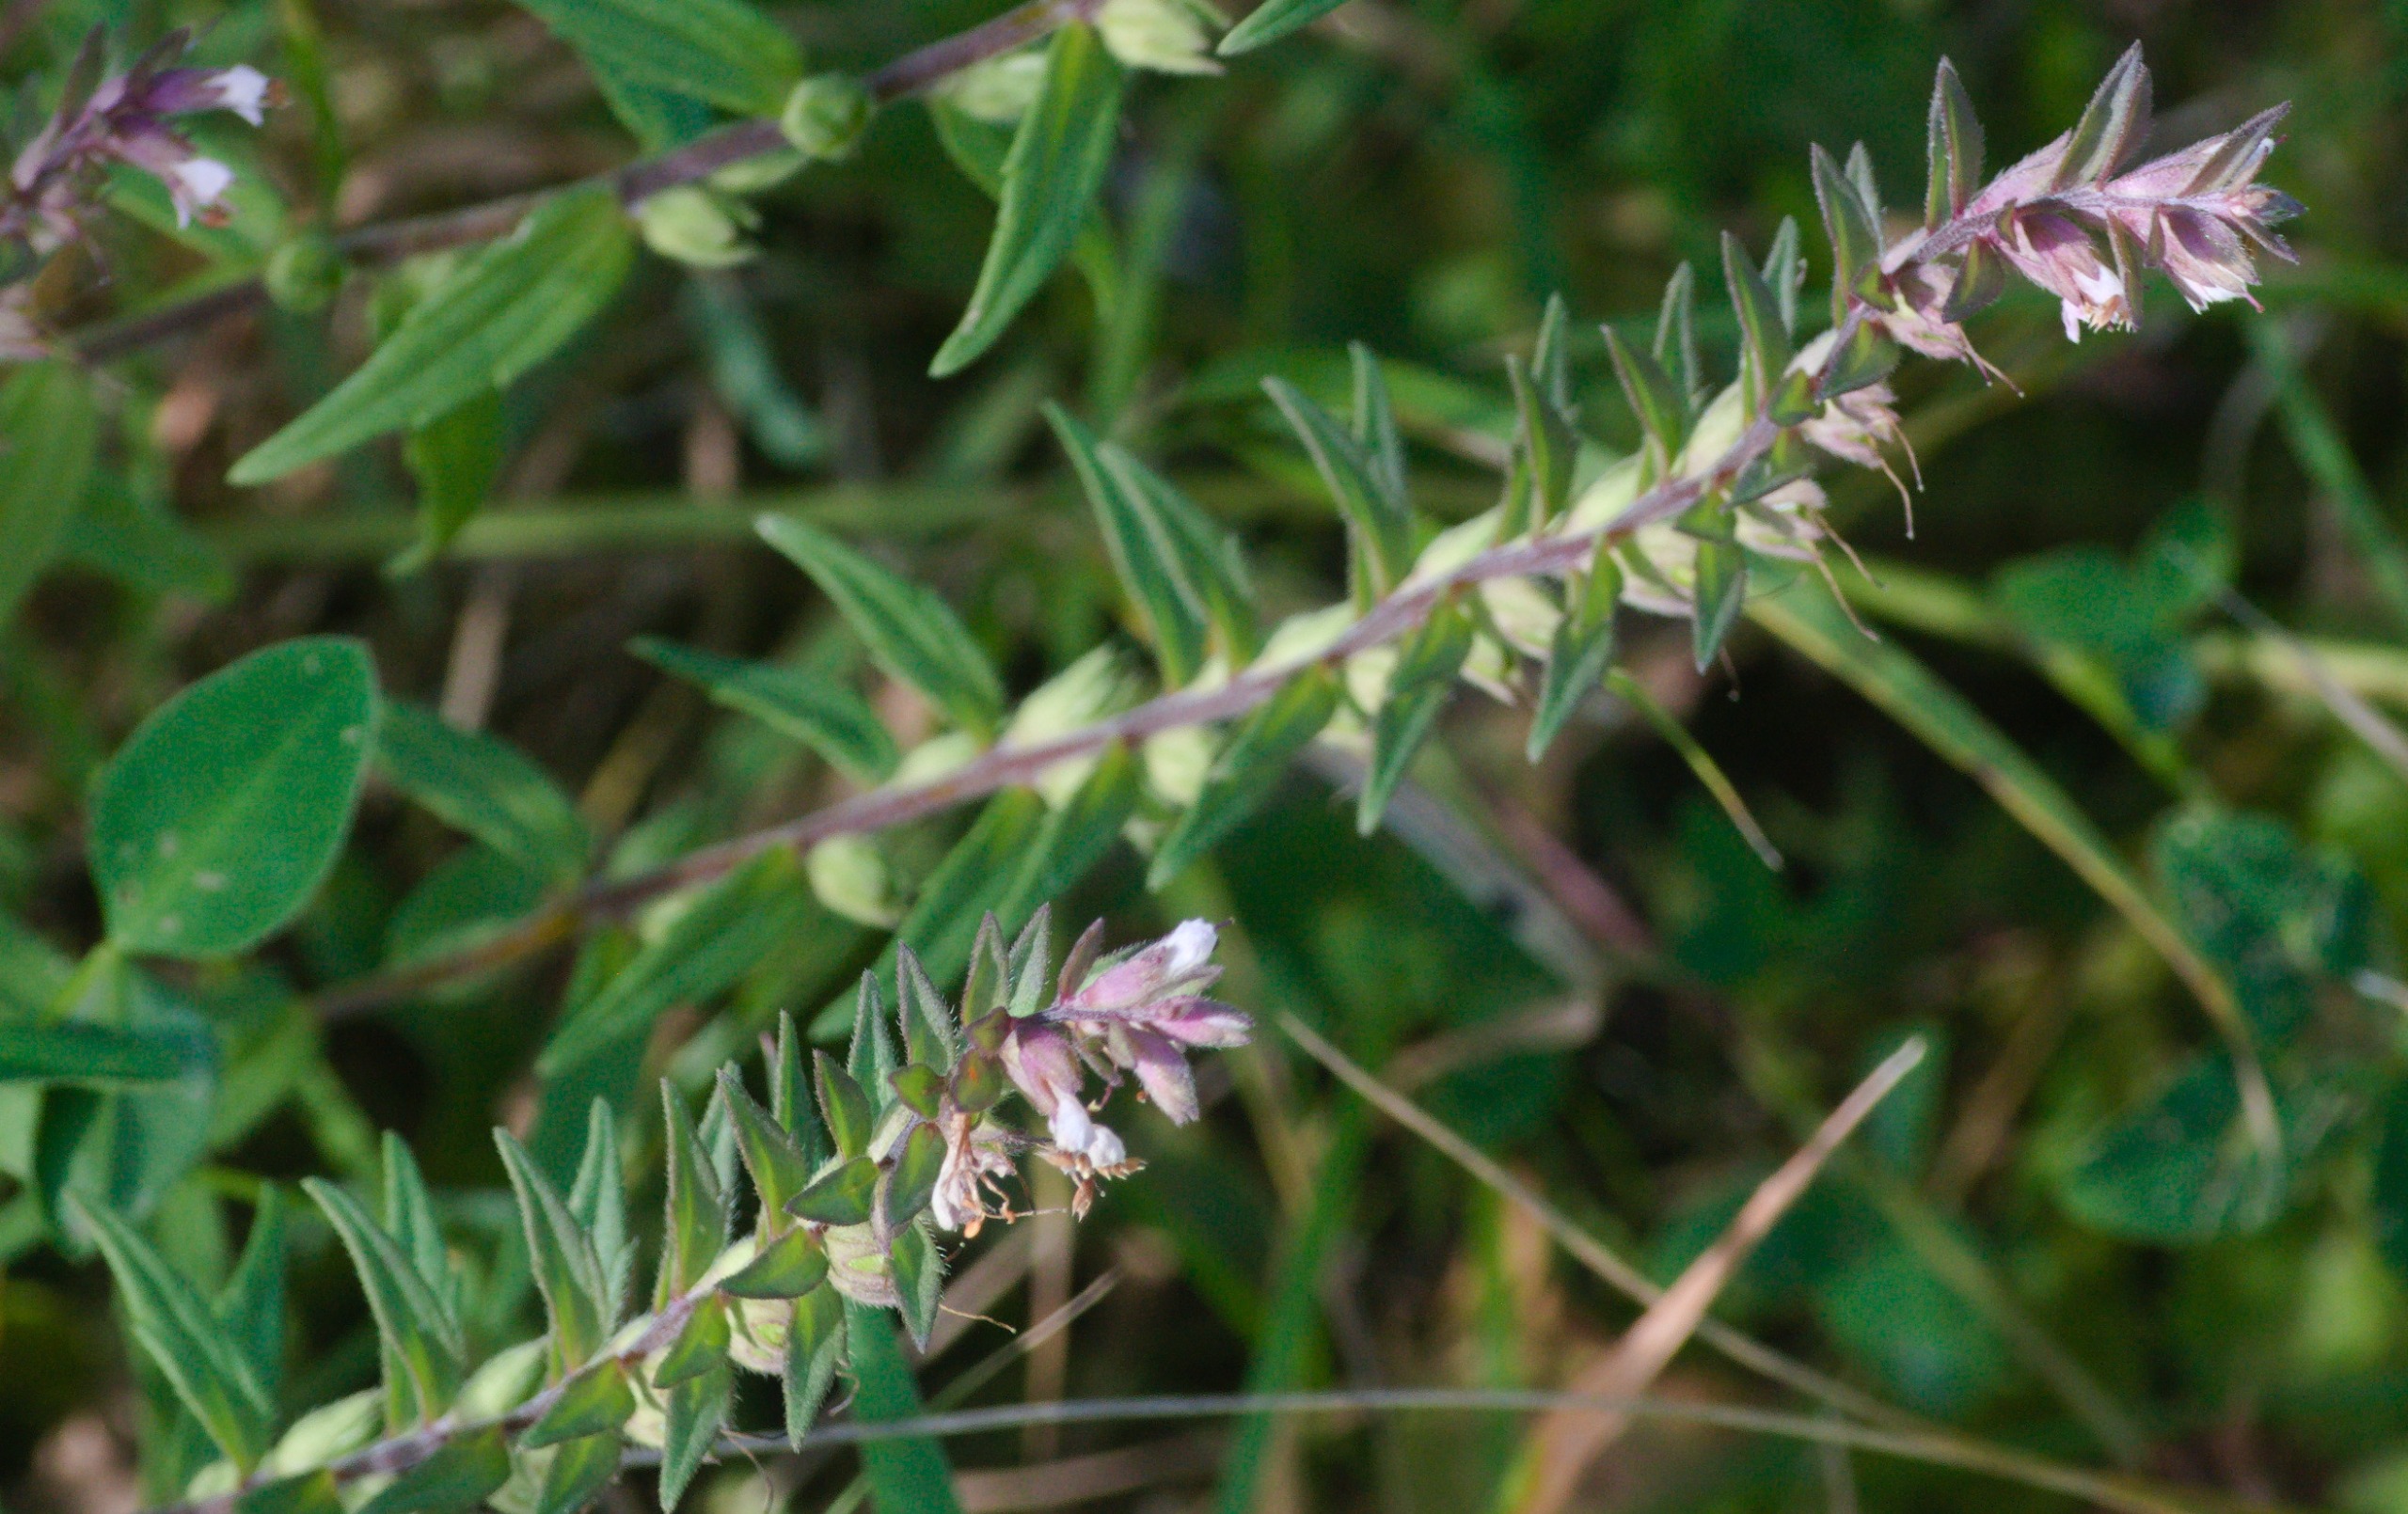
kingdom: Plantae
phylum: Tracheophyta
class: Magnoliopsida
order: Lamiales
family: Orobanchaceae
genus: Odontites
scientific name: Odontites vulgaris
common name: Høst-rødtop
